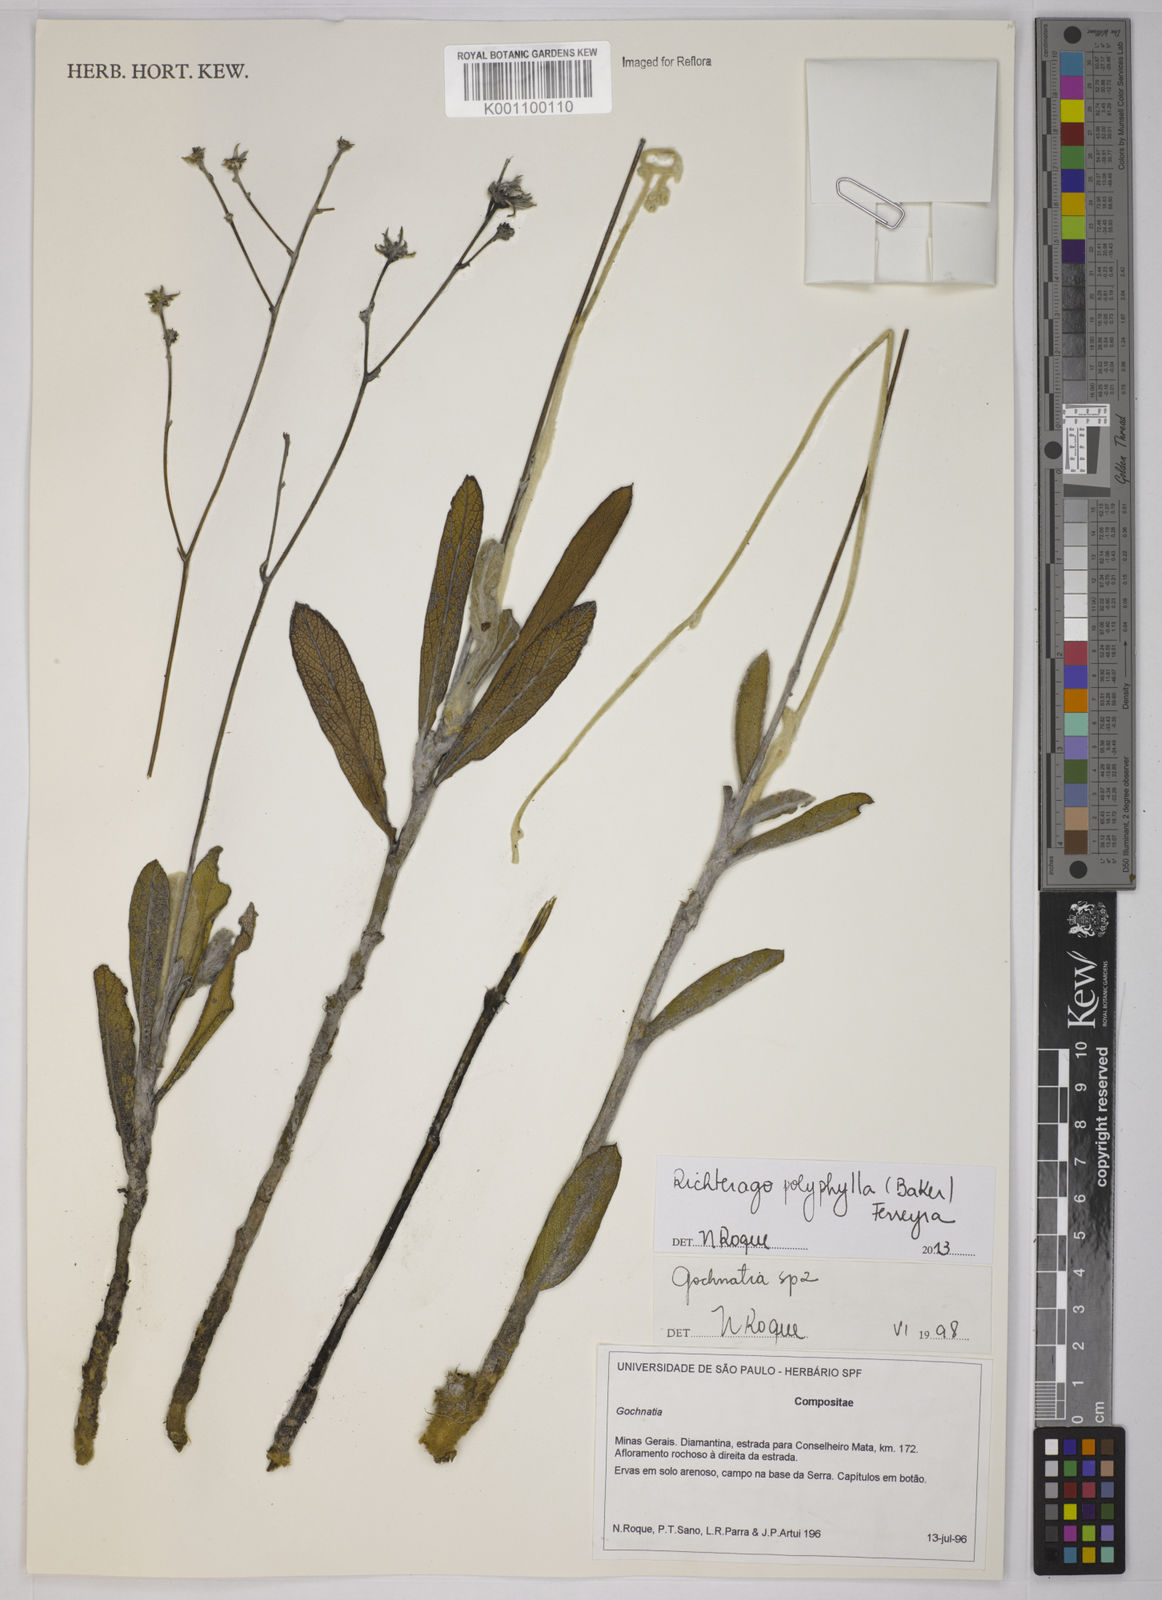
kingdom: Plantae
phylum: Tracheophyta
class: Magnoliopsida
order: Asterales
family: Asteraceae
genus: Richterago
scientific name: Richterago polyphylla
